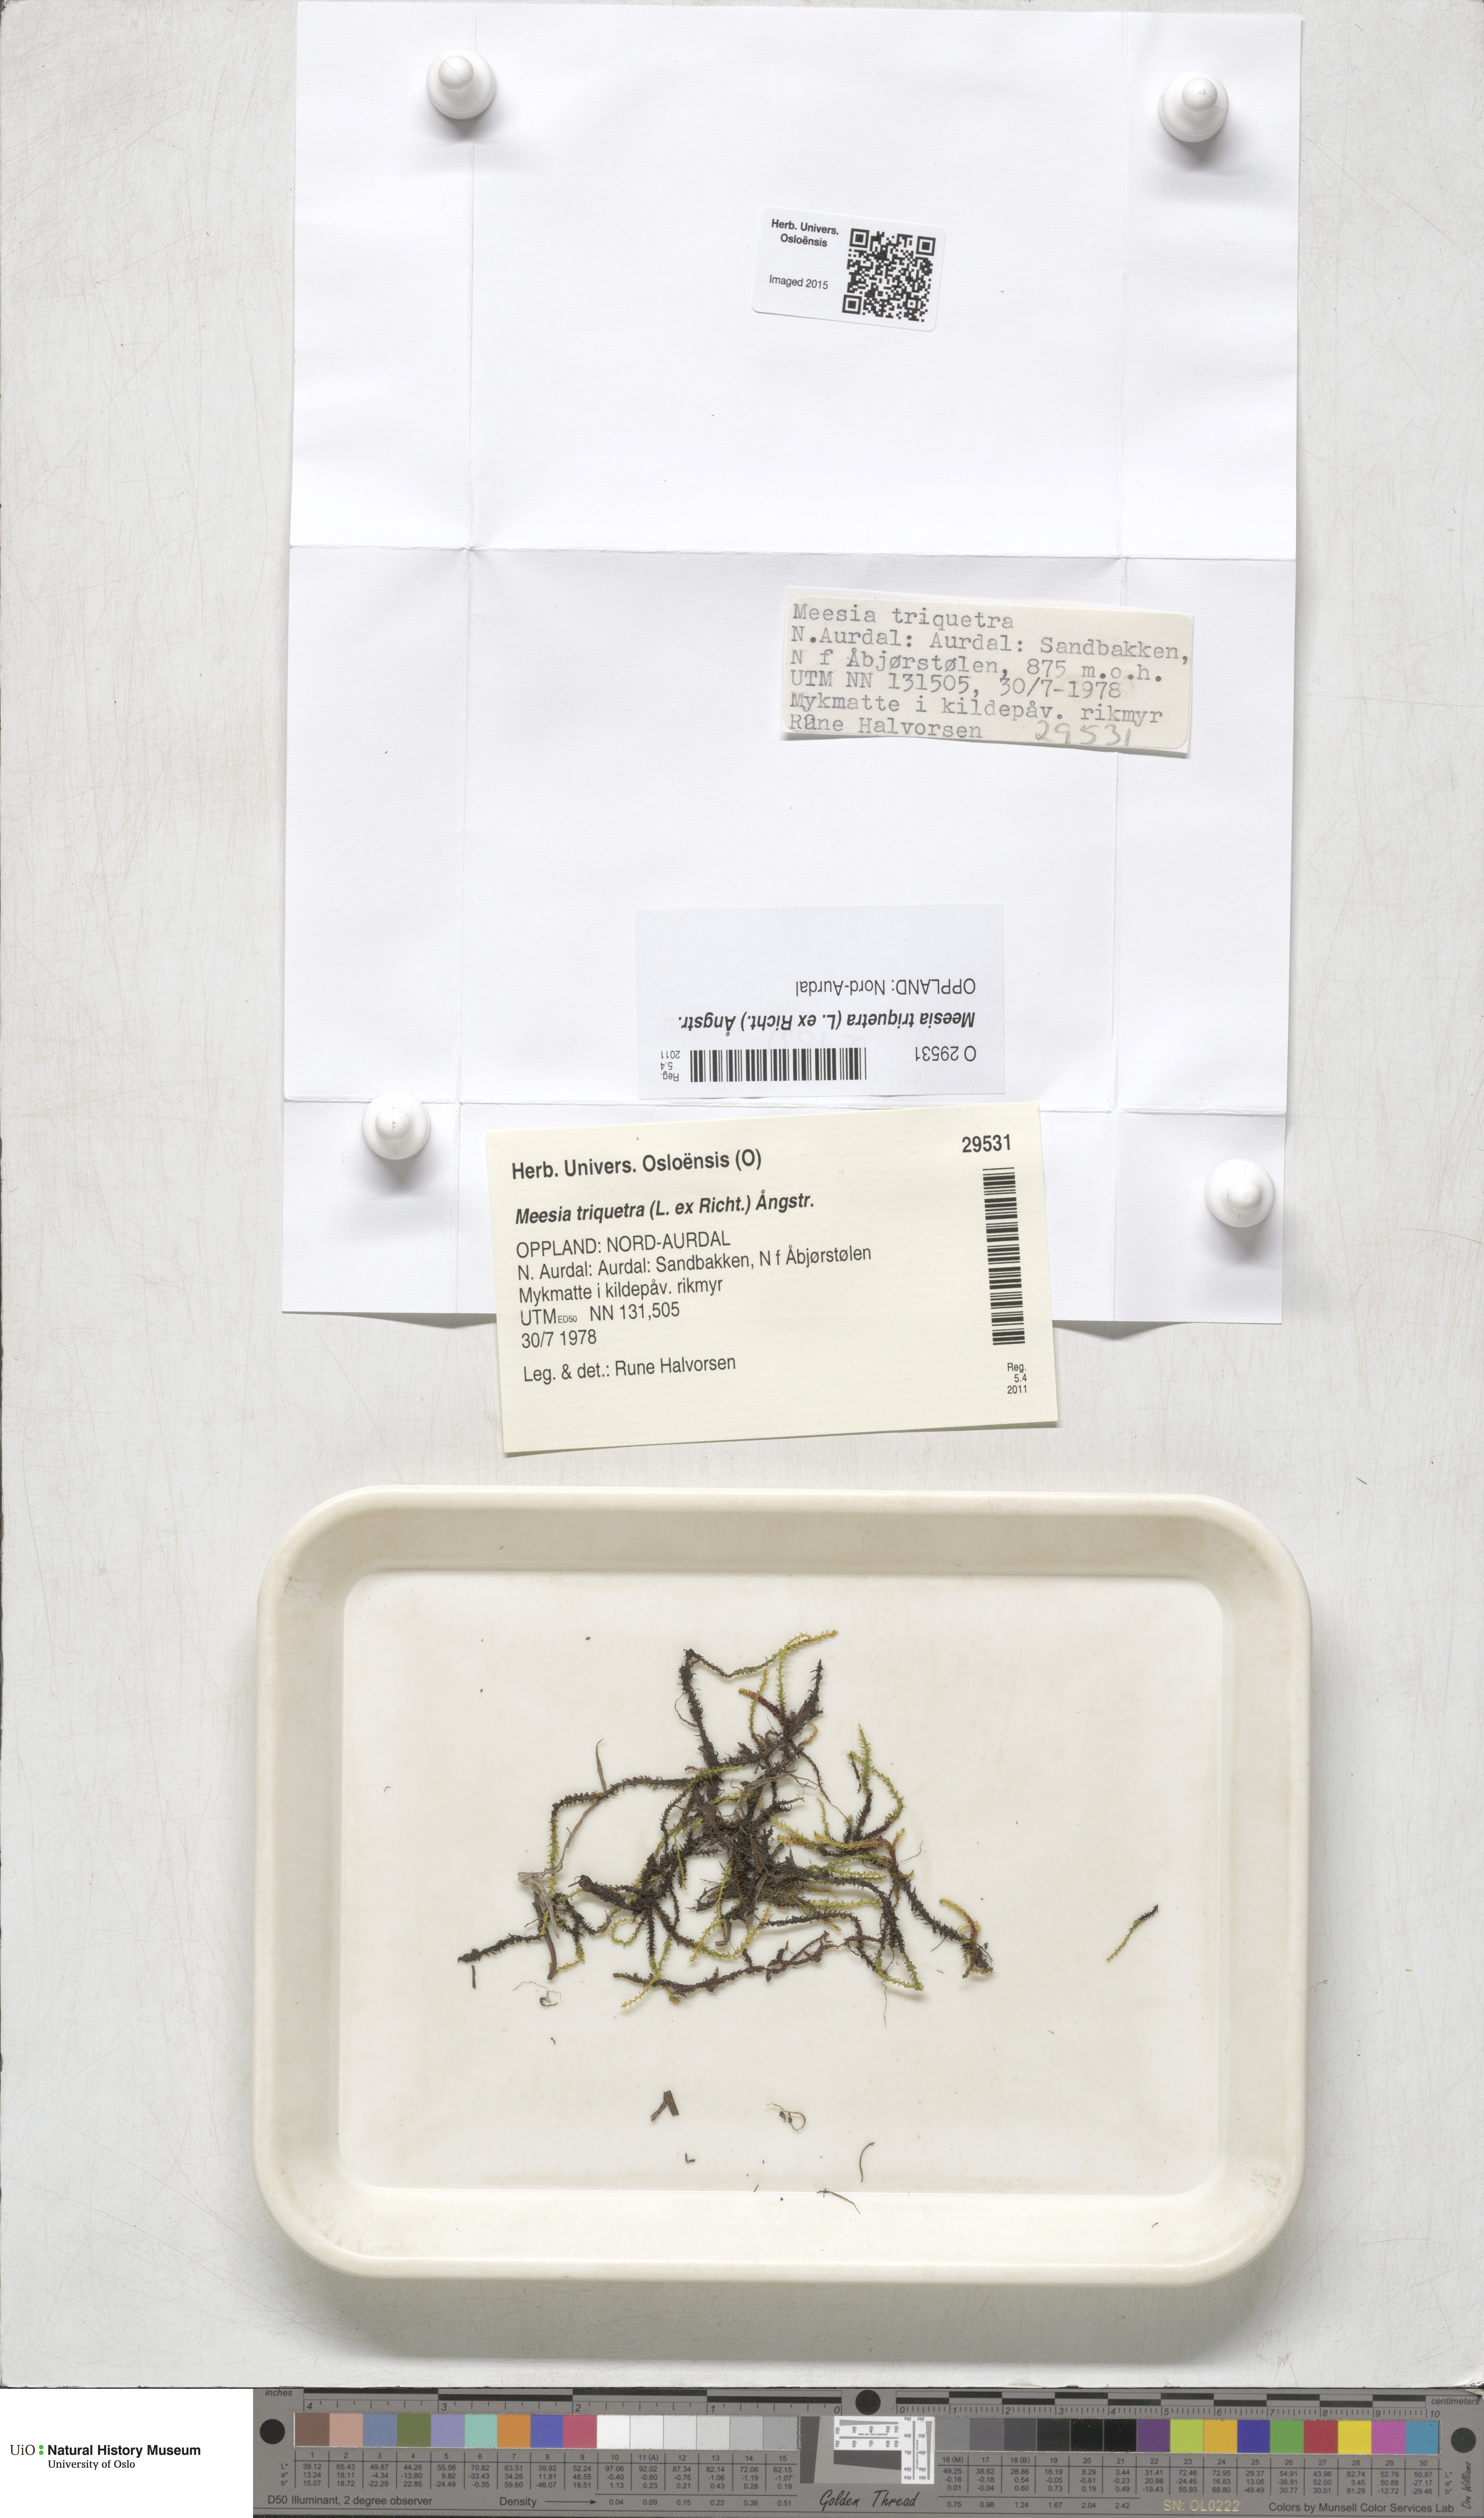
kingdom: Plantae
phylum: Bryophyta
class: Bryopsida
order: Splachnales
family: Meesiaceae
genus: Meesia
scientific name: Meesia triquetra
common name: Three-angled thread moss
